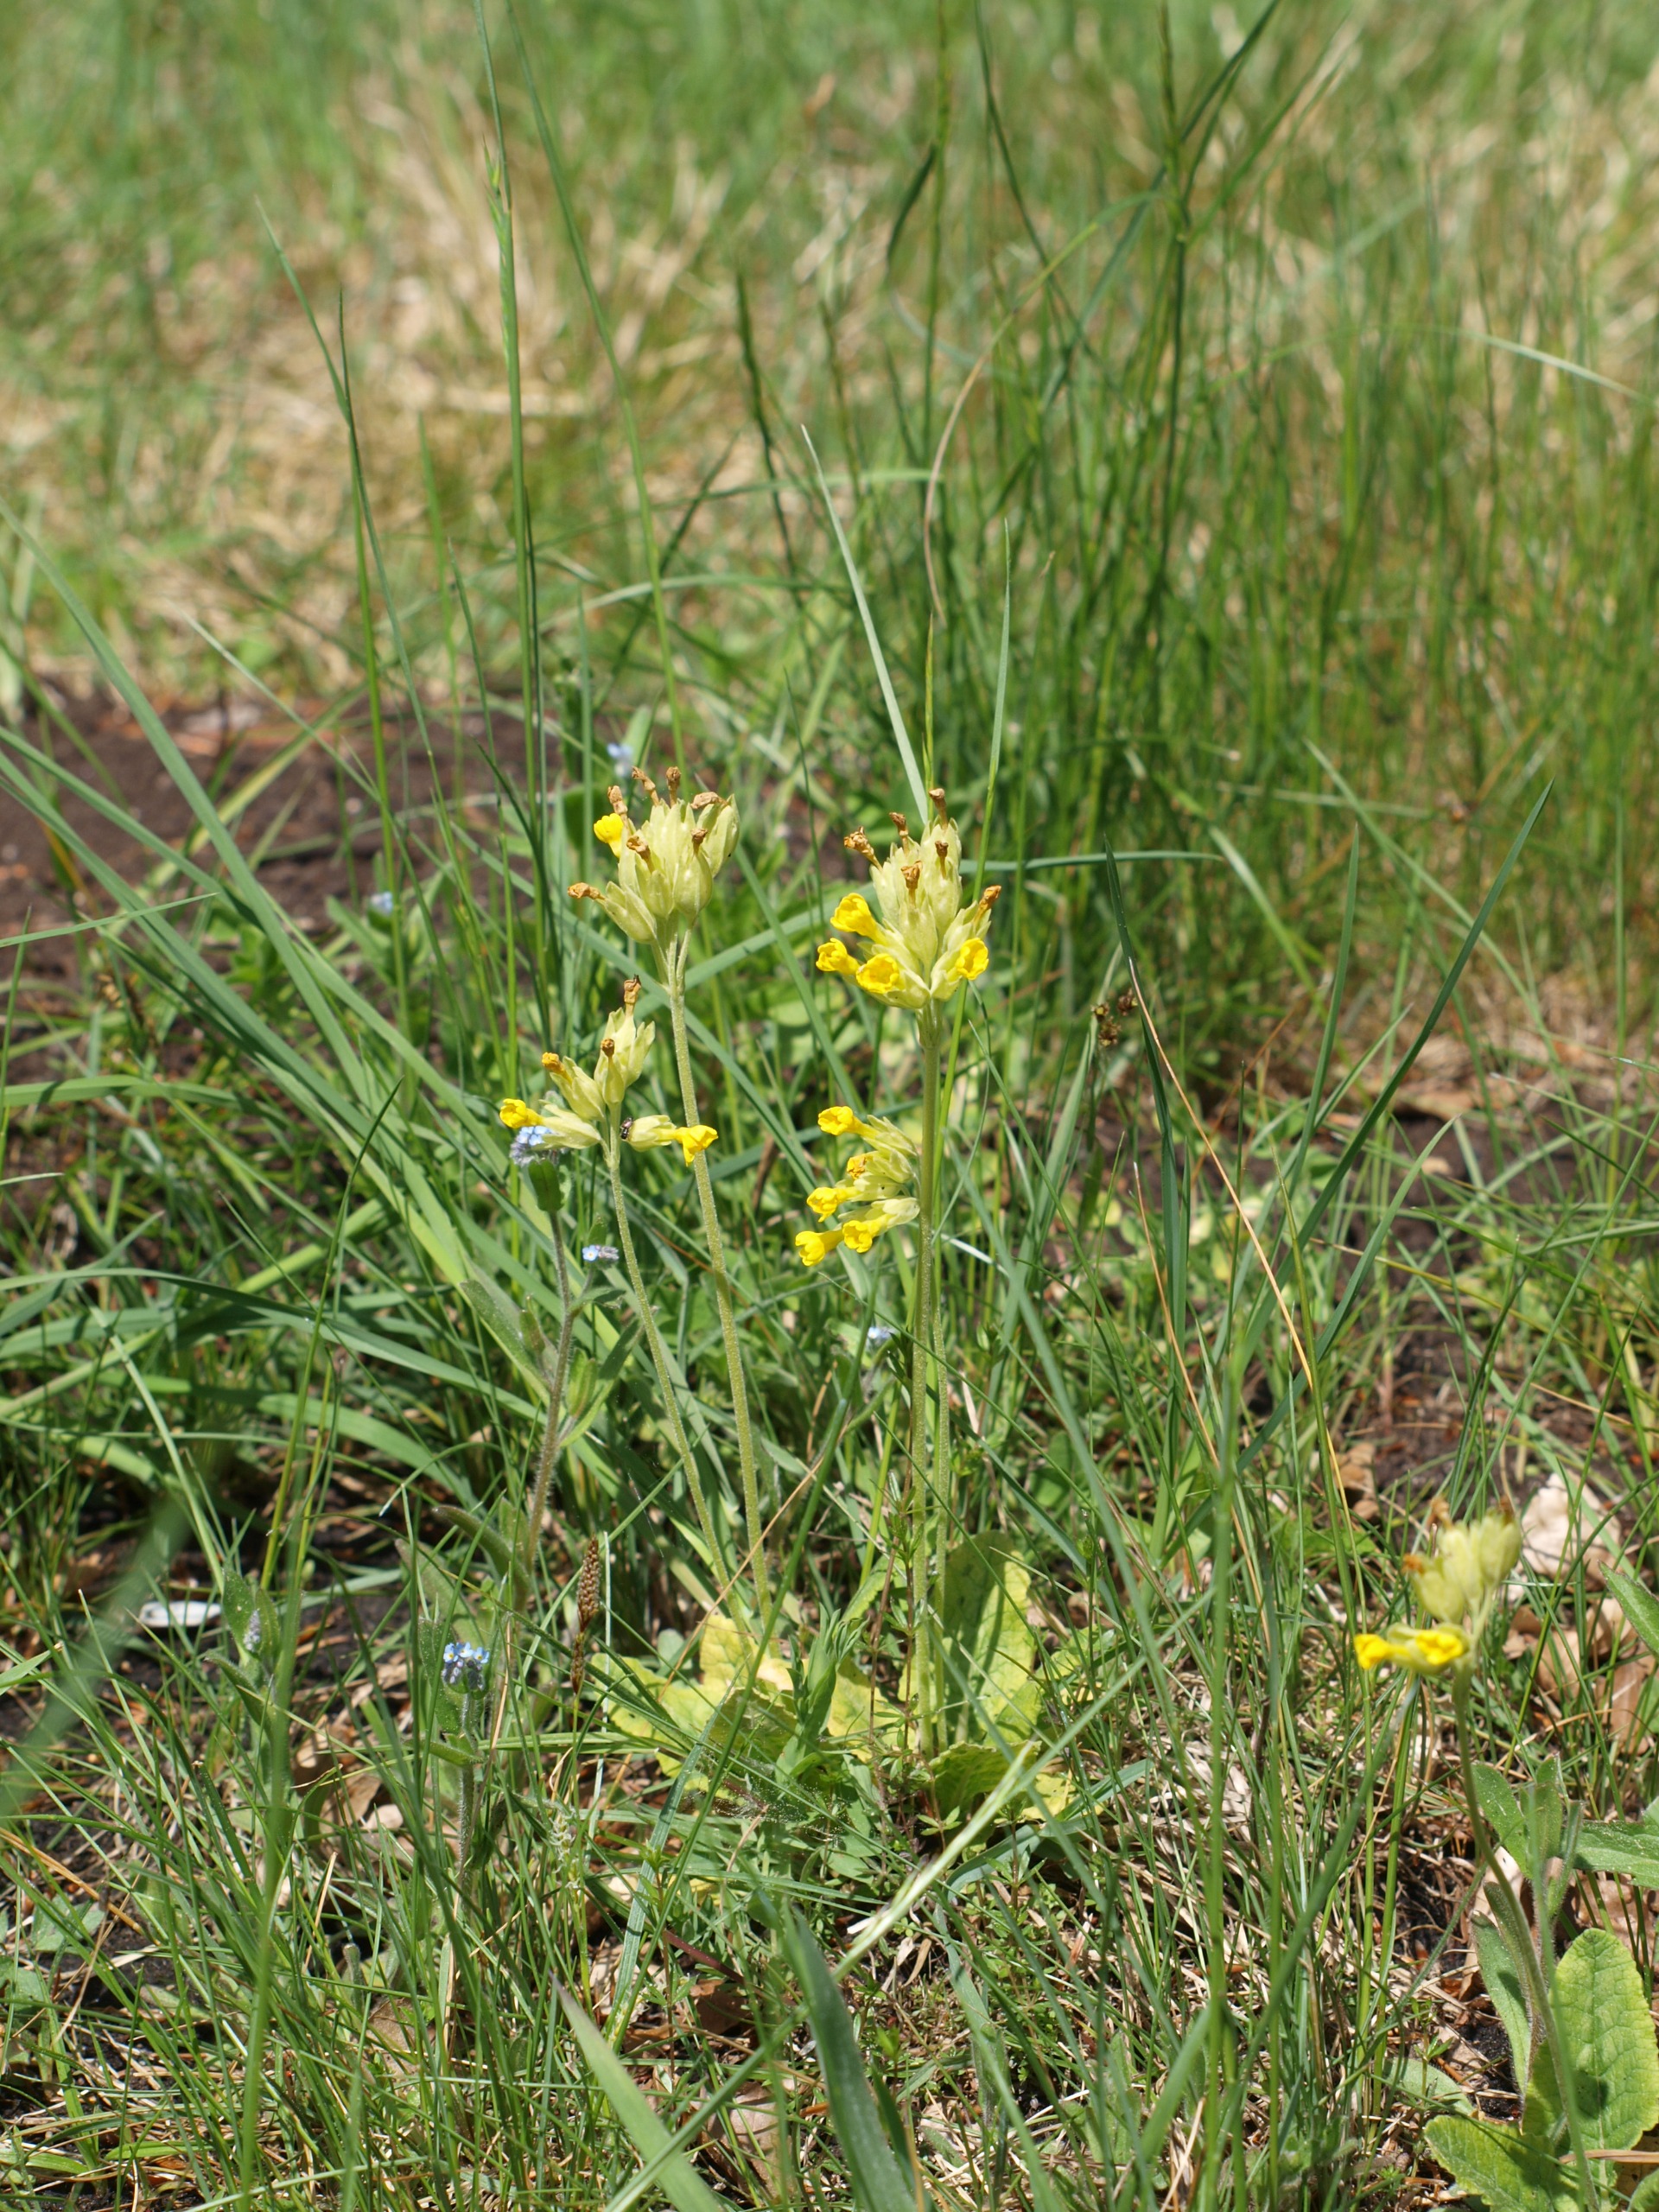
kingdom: Plantae
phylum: Tracheophyta
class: Magnoliopsida
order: Ericales
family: Primulaceae
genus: Primula
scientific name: Primula veris
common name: Hulkravet kodriver
